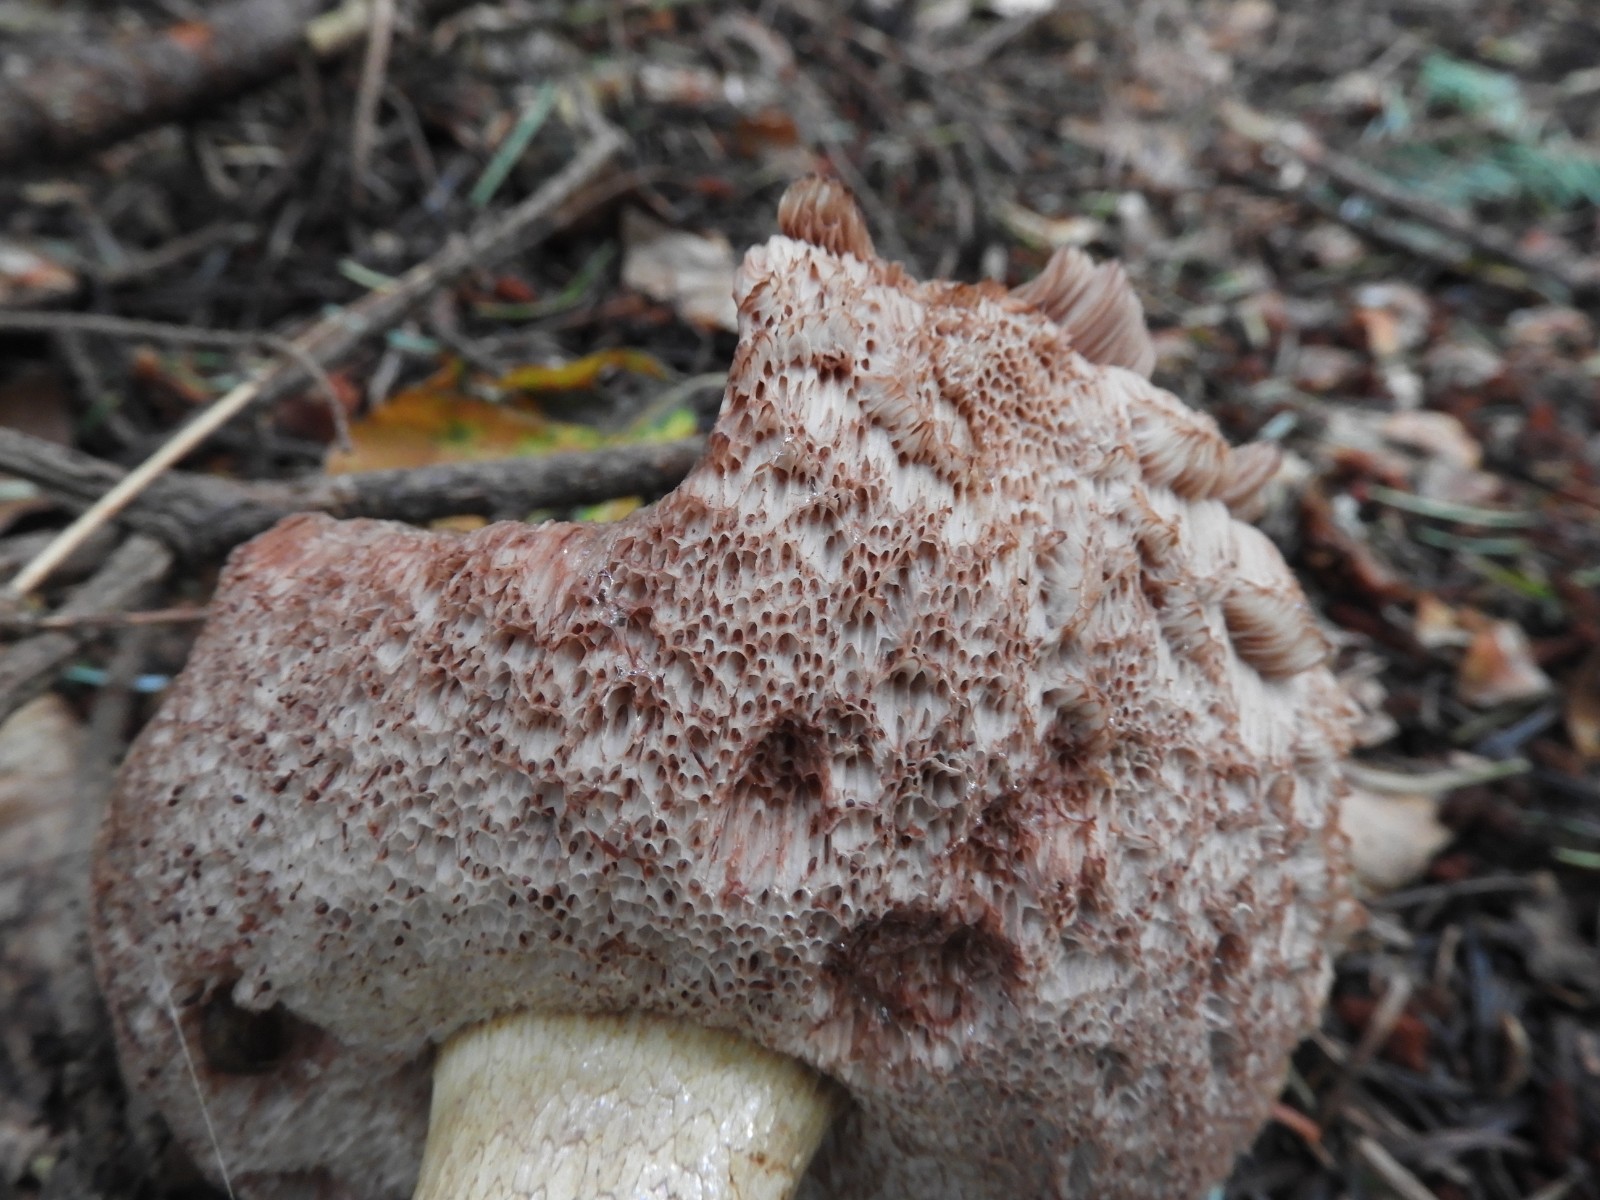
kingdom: Fungi
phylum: Basidiomycota
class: Agaricomycetes
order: Boletales
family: Boletaceae
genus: Tylopilus
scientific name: Tylopilus felleus
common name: galderørhat
